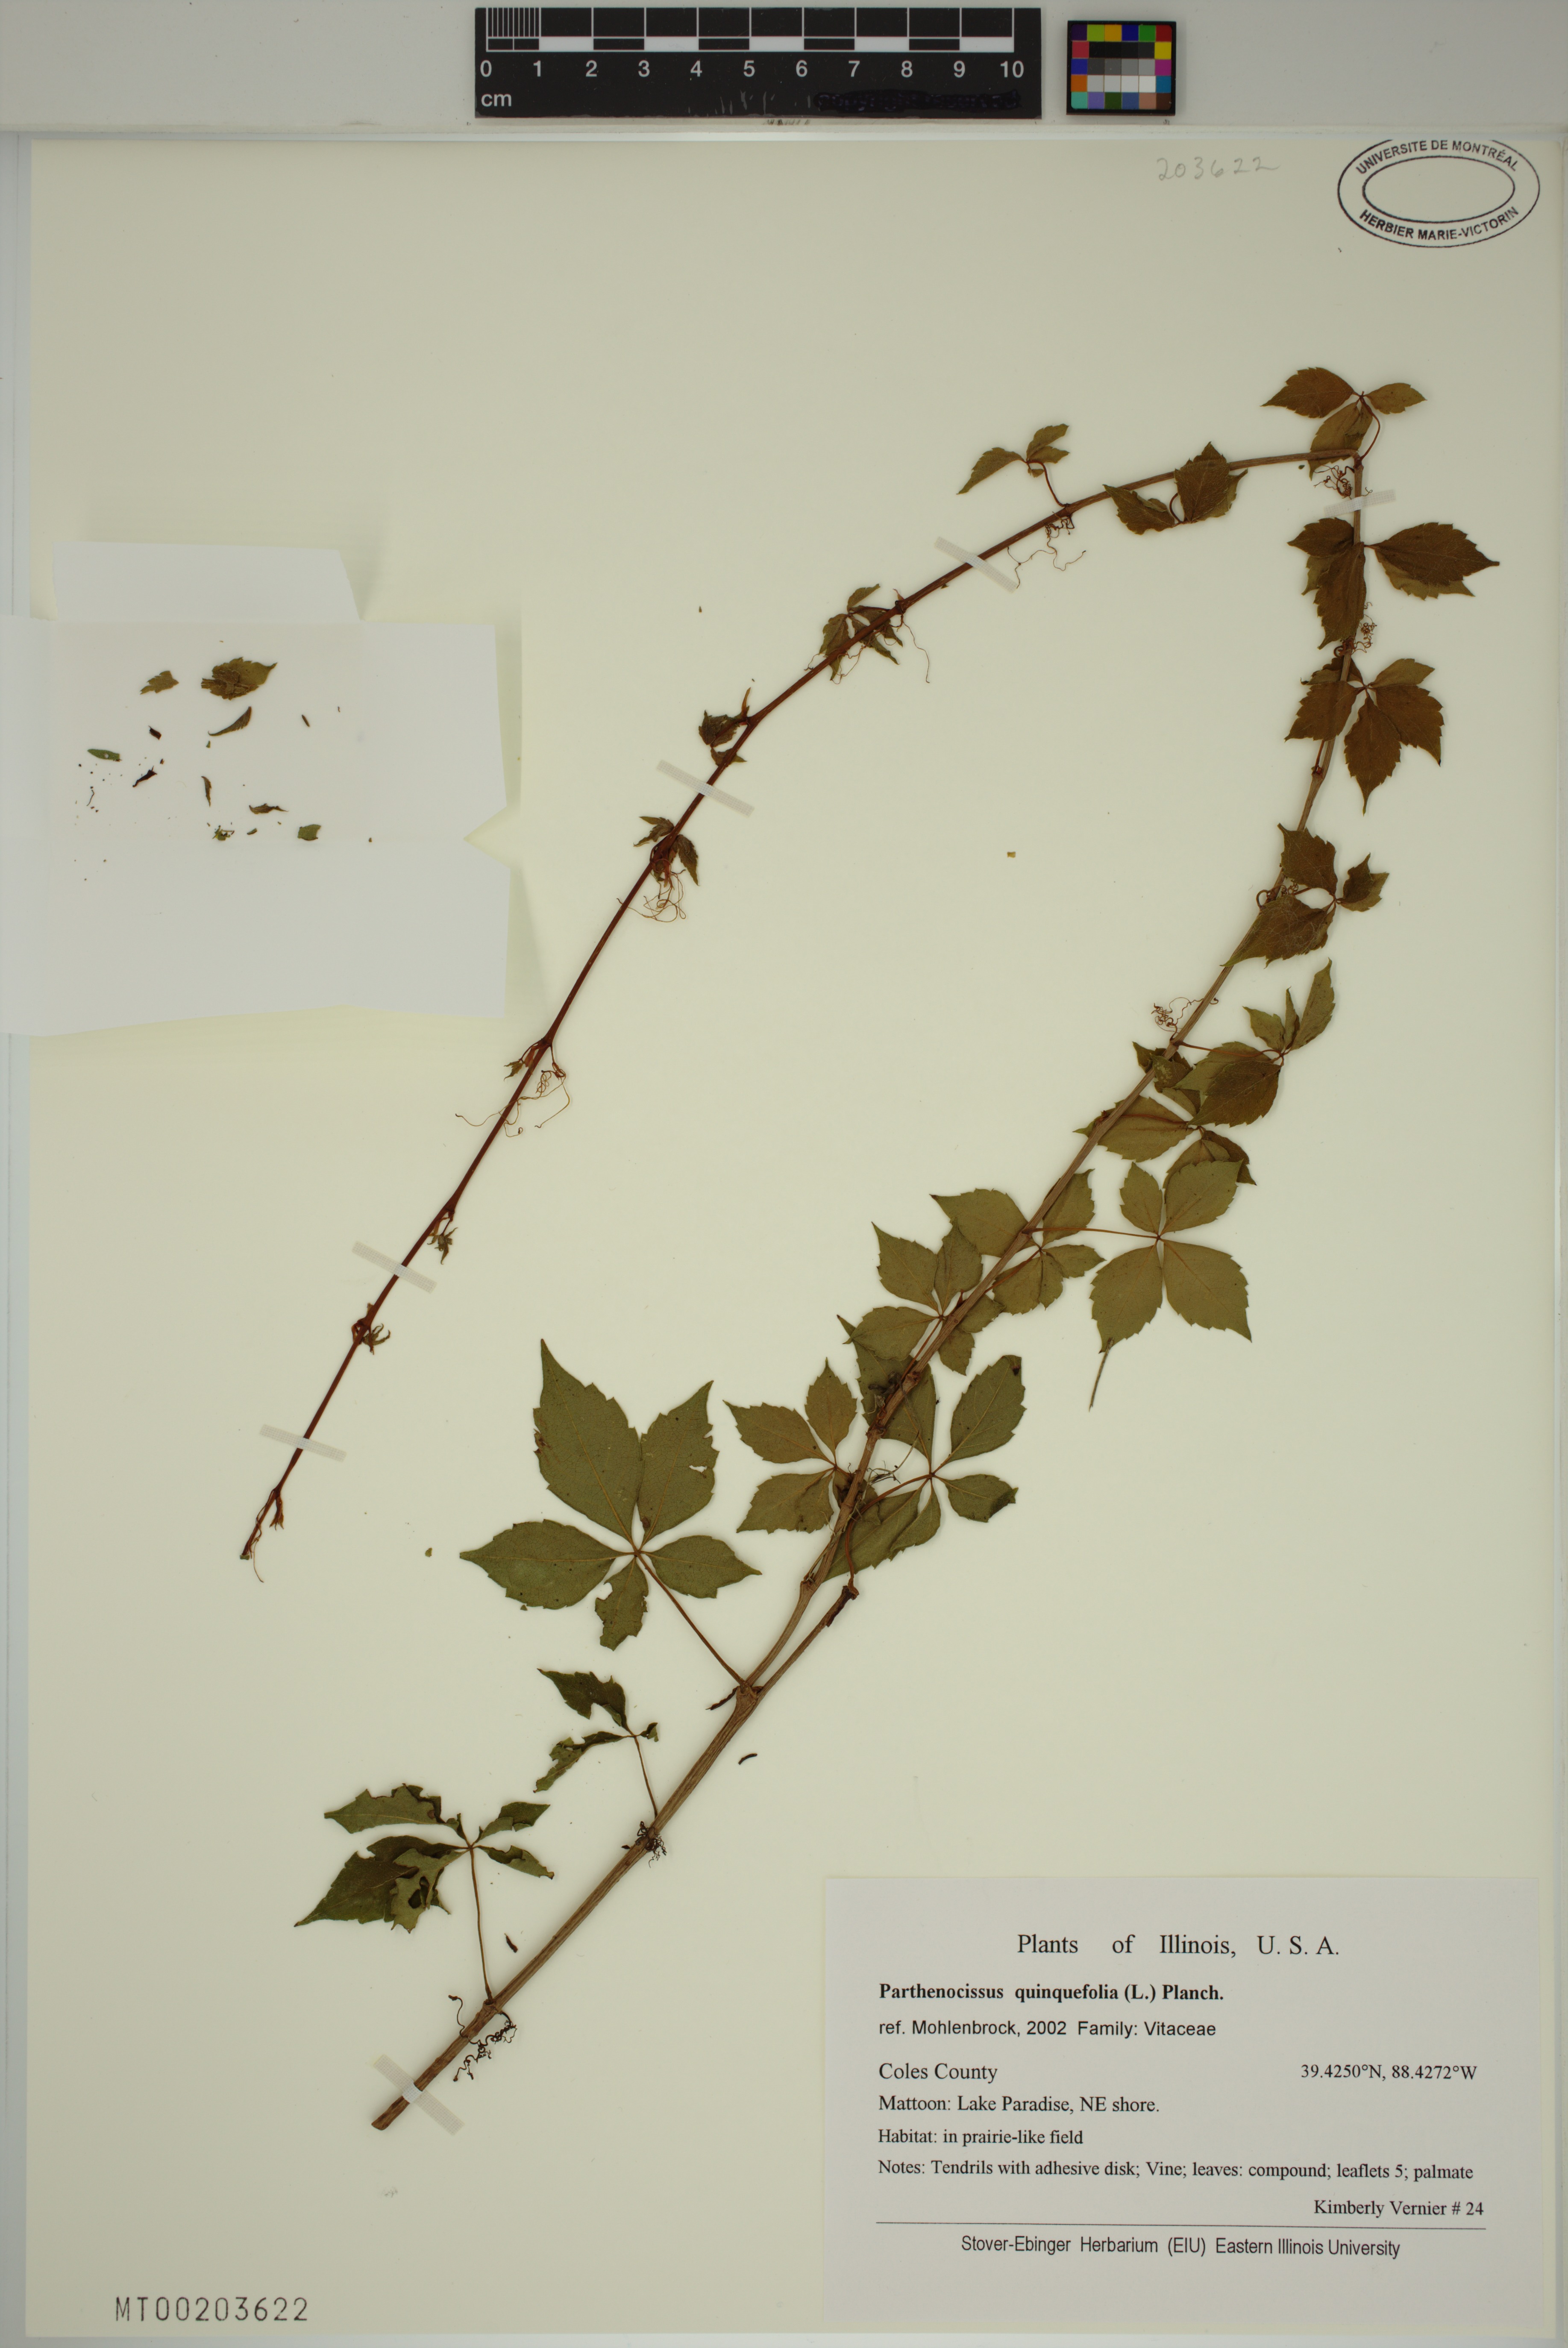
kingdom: Plantae
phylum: Tracheophyta
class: Magnoliopsida
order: Vitales
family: Vitaceae
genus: Parthenocissus
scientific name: Parthenocissus quinquefolia
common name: Virginia-creeper
